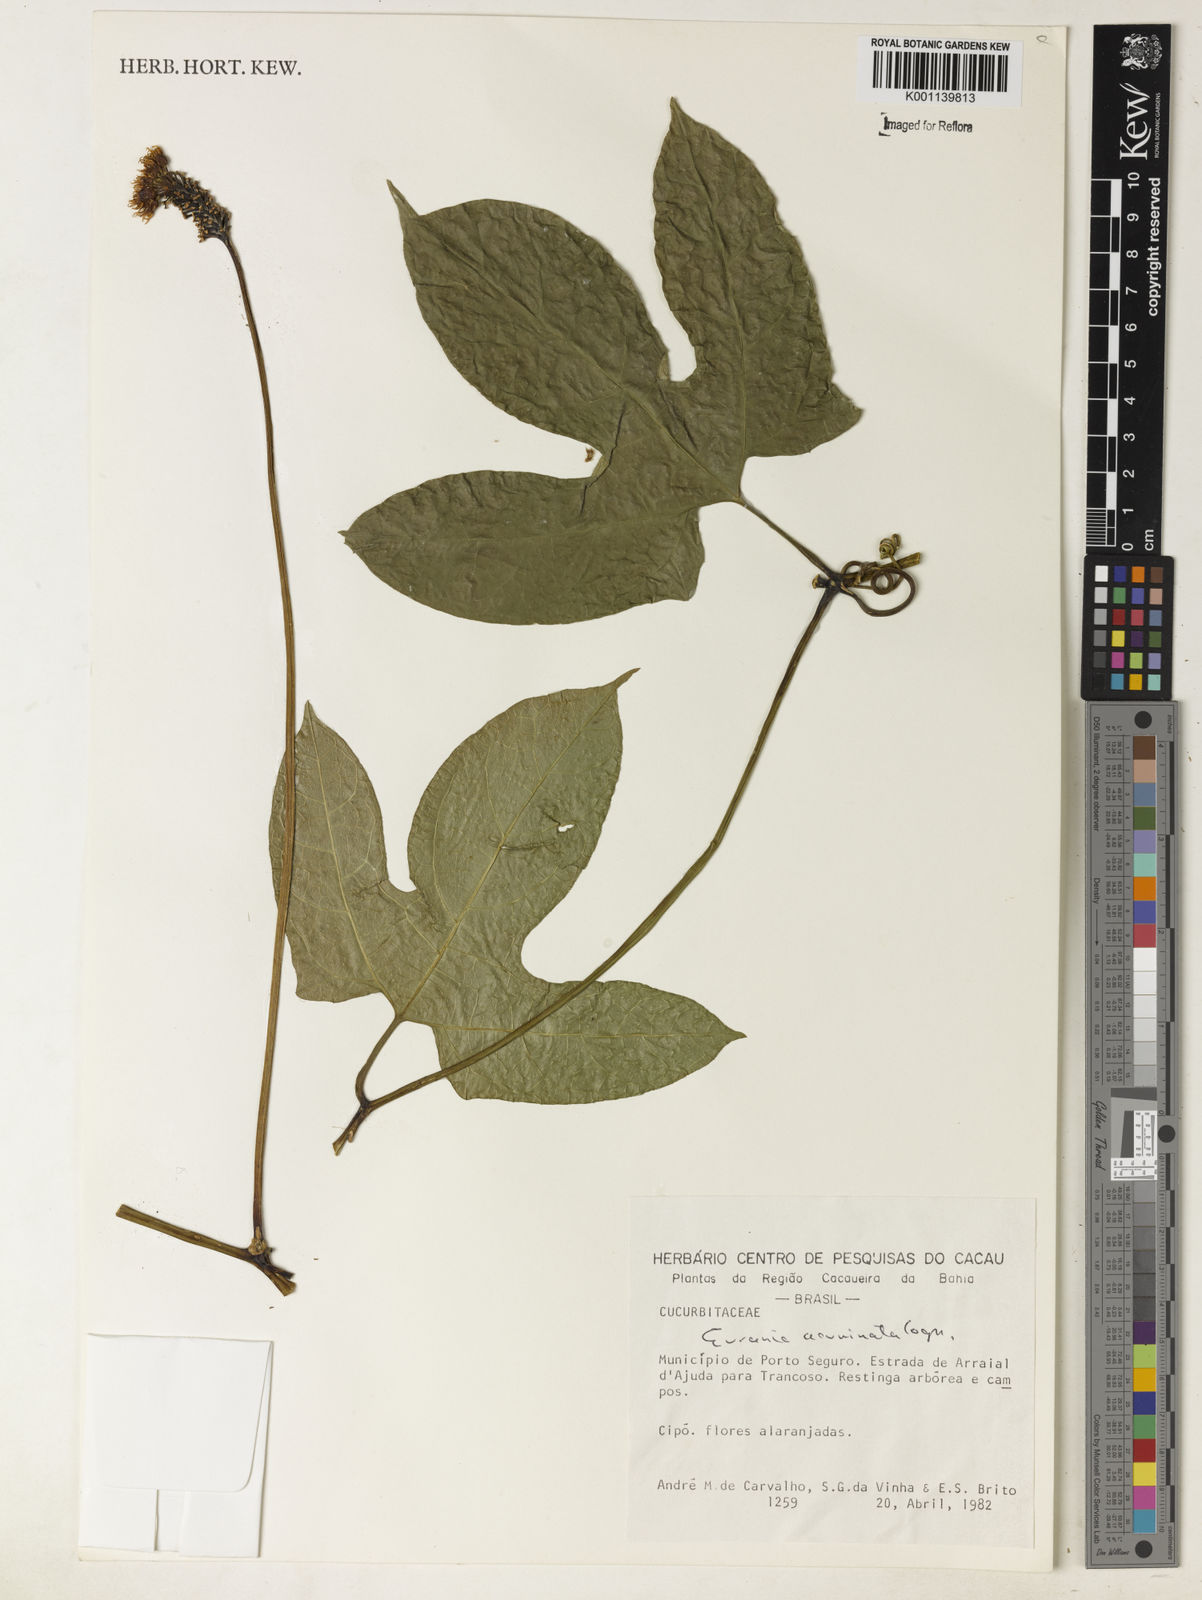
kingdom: Plantae
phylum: Tracheophyta
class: Magnoliopsida
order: Cucurbitales
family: Cucurbitaceae
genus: Gurania
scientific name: Gurania acuminata
